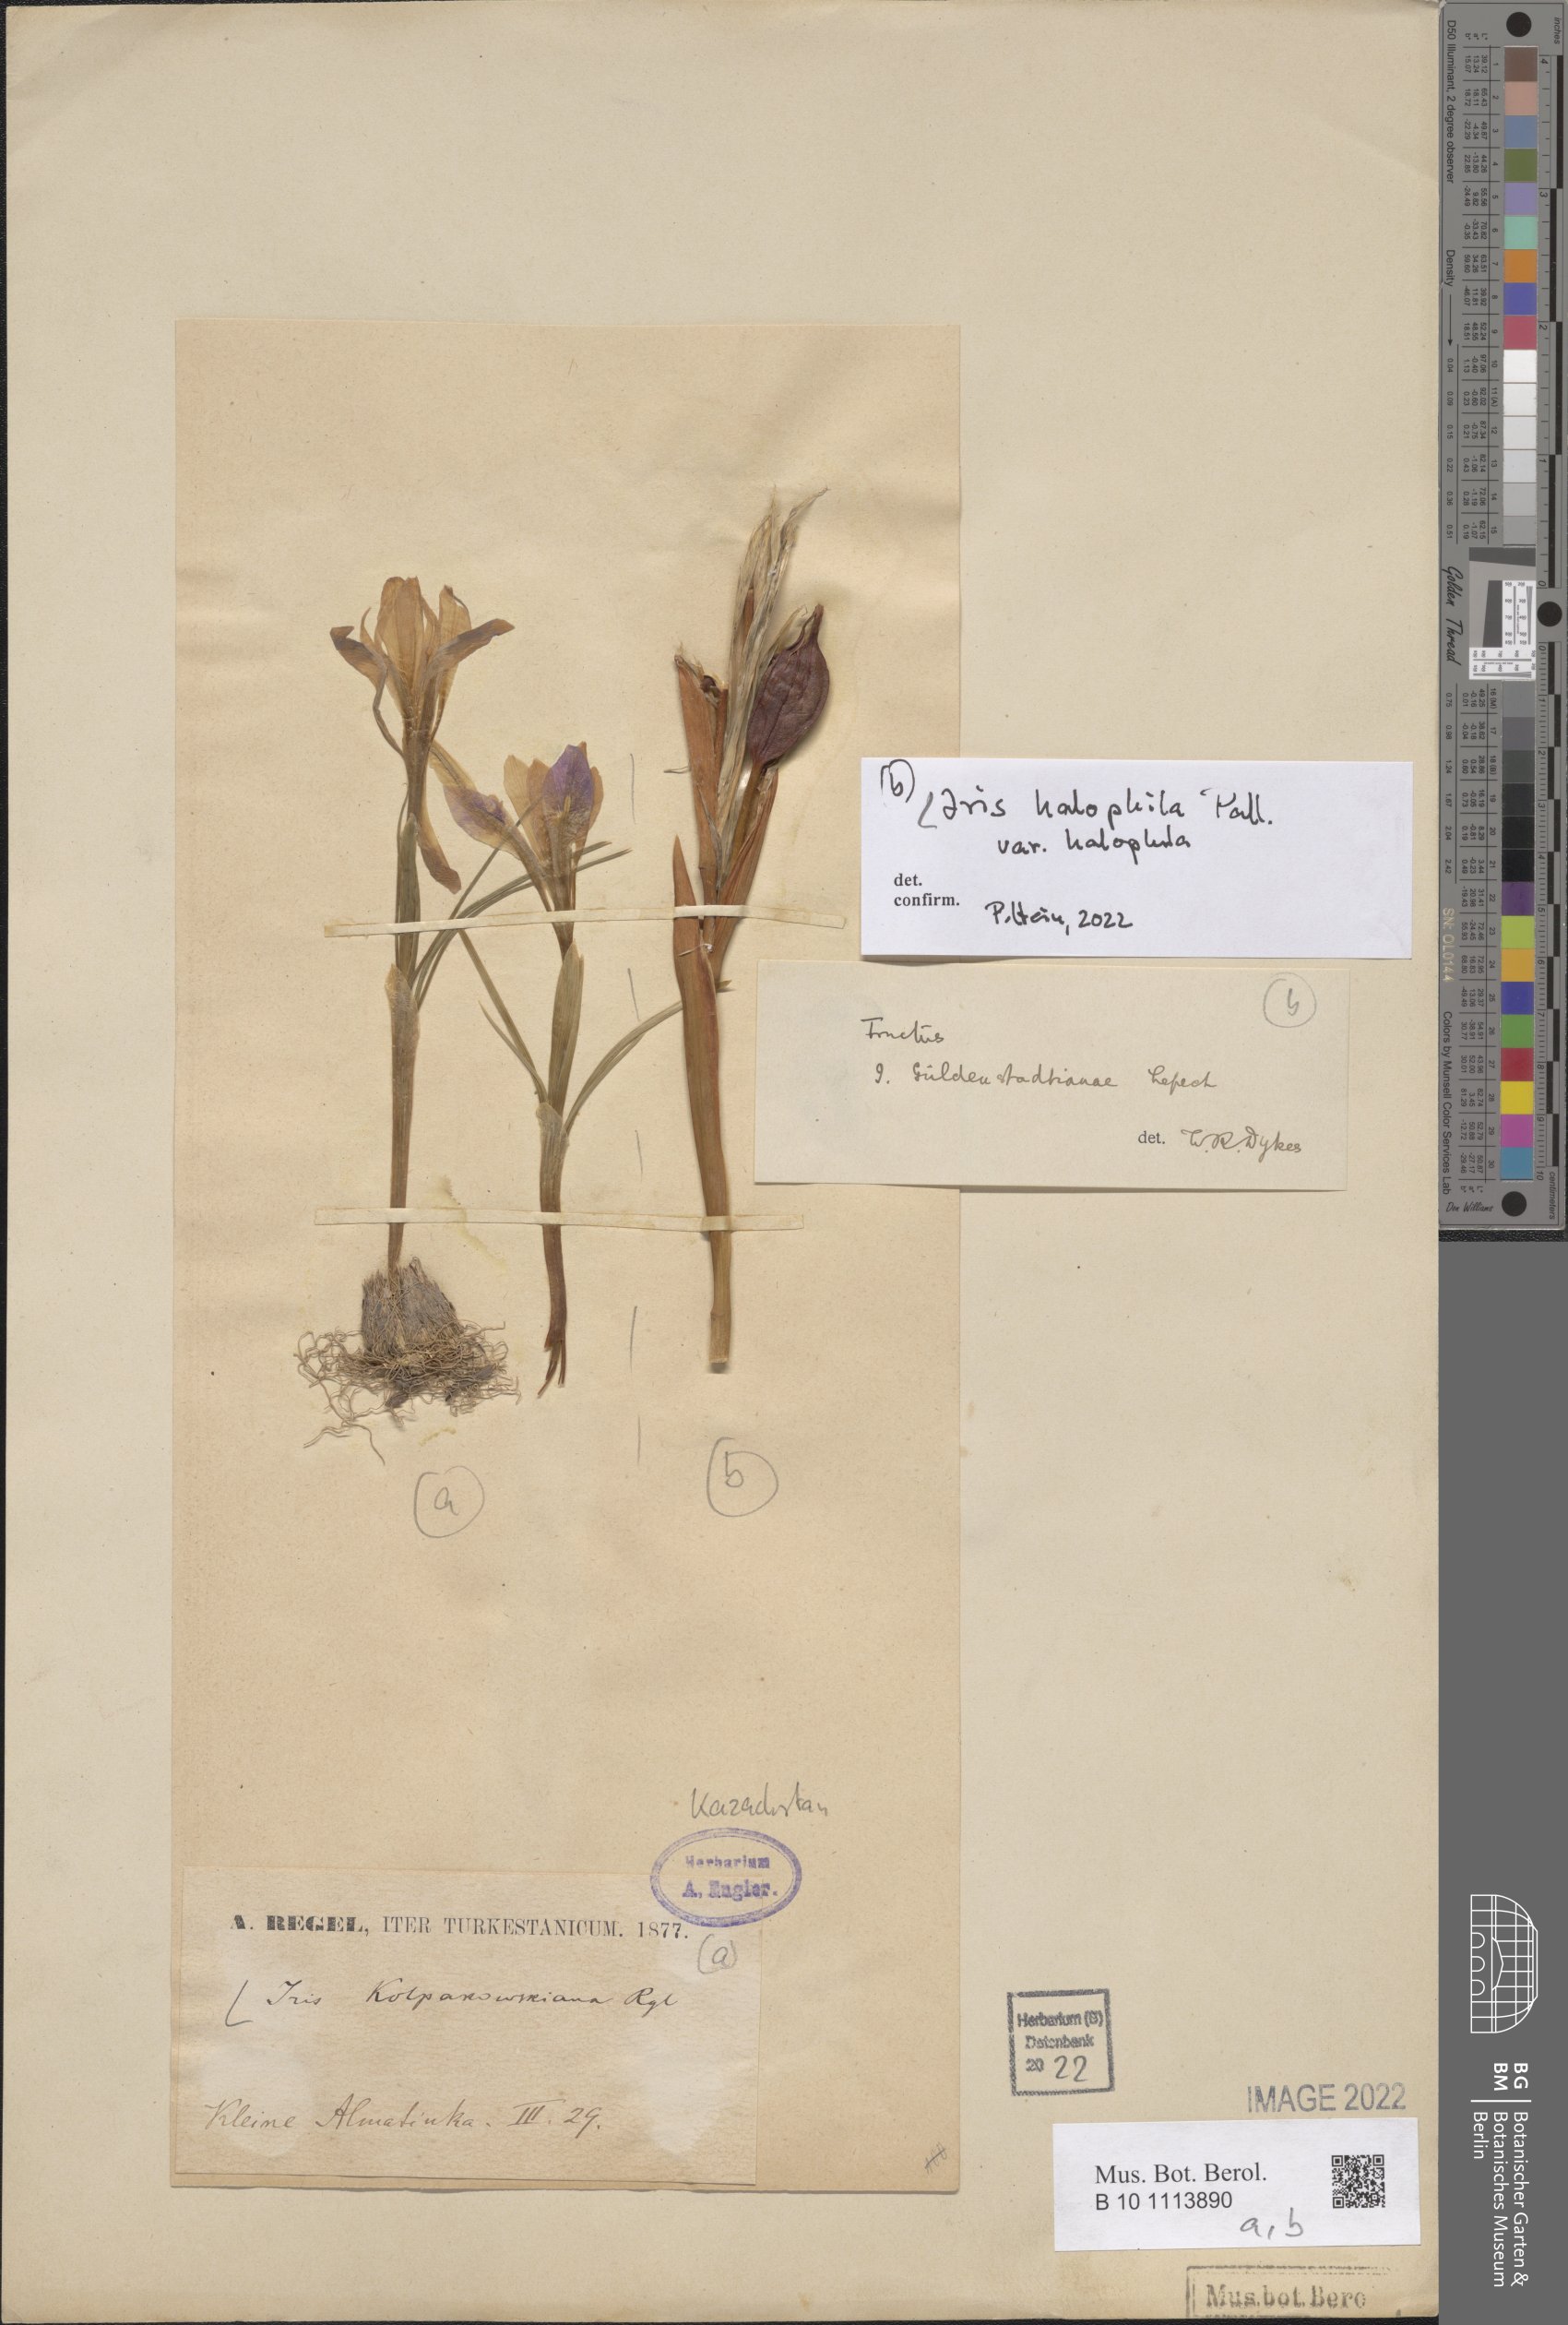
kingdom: Plantae
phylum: Tracheophyta
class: Liliopsida
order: Asparagales
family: Iridaceae
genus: Iris
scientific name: Iris halophila
